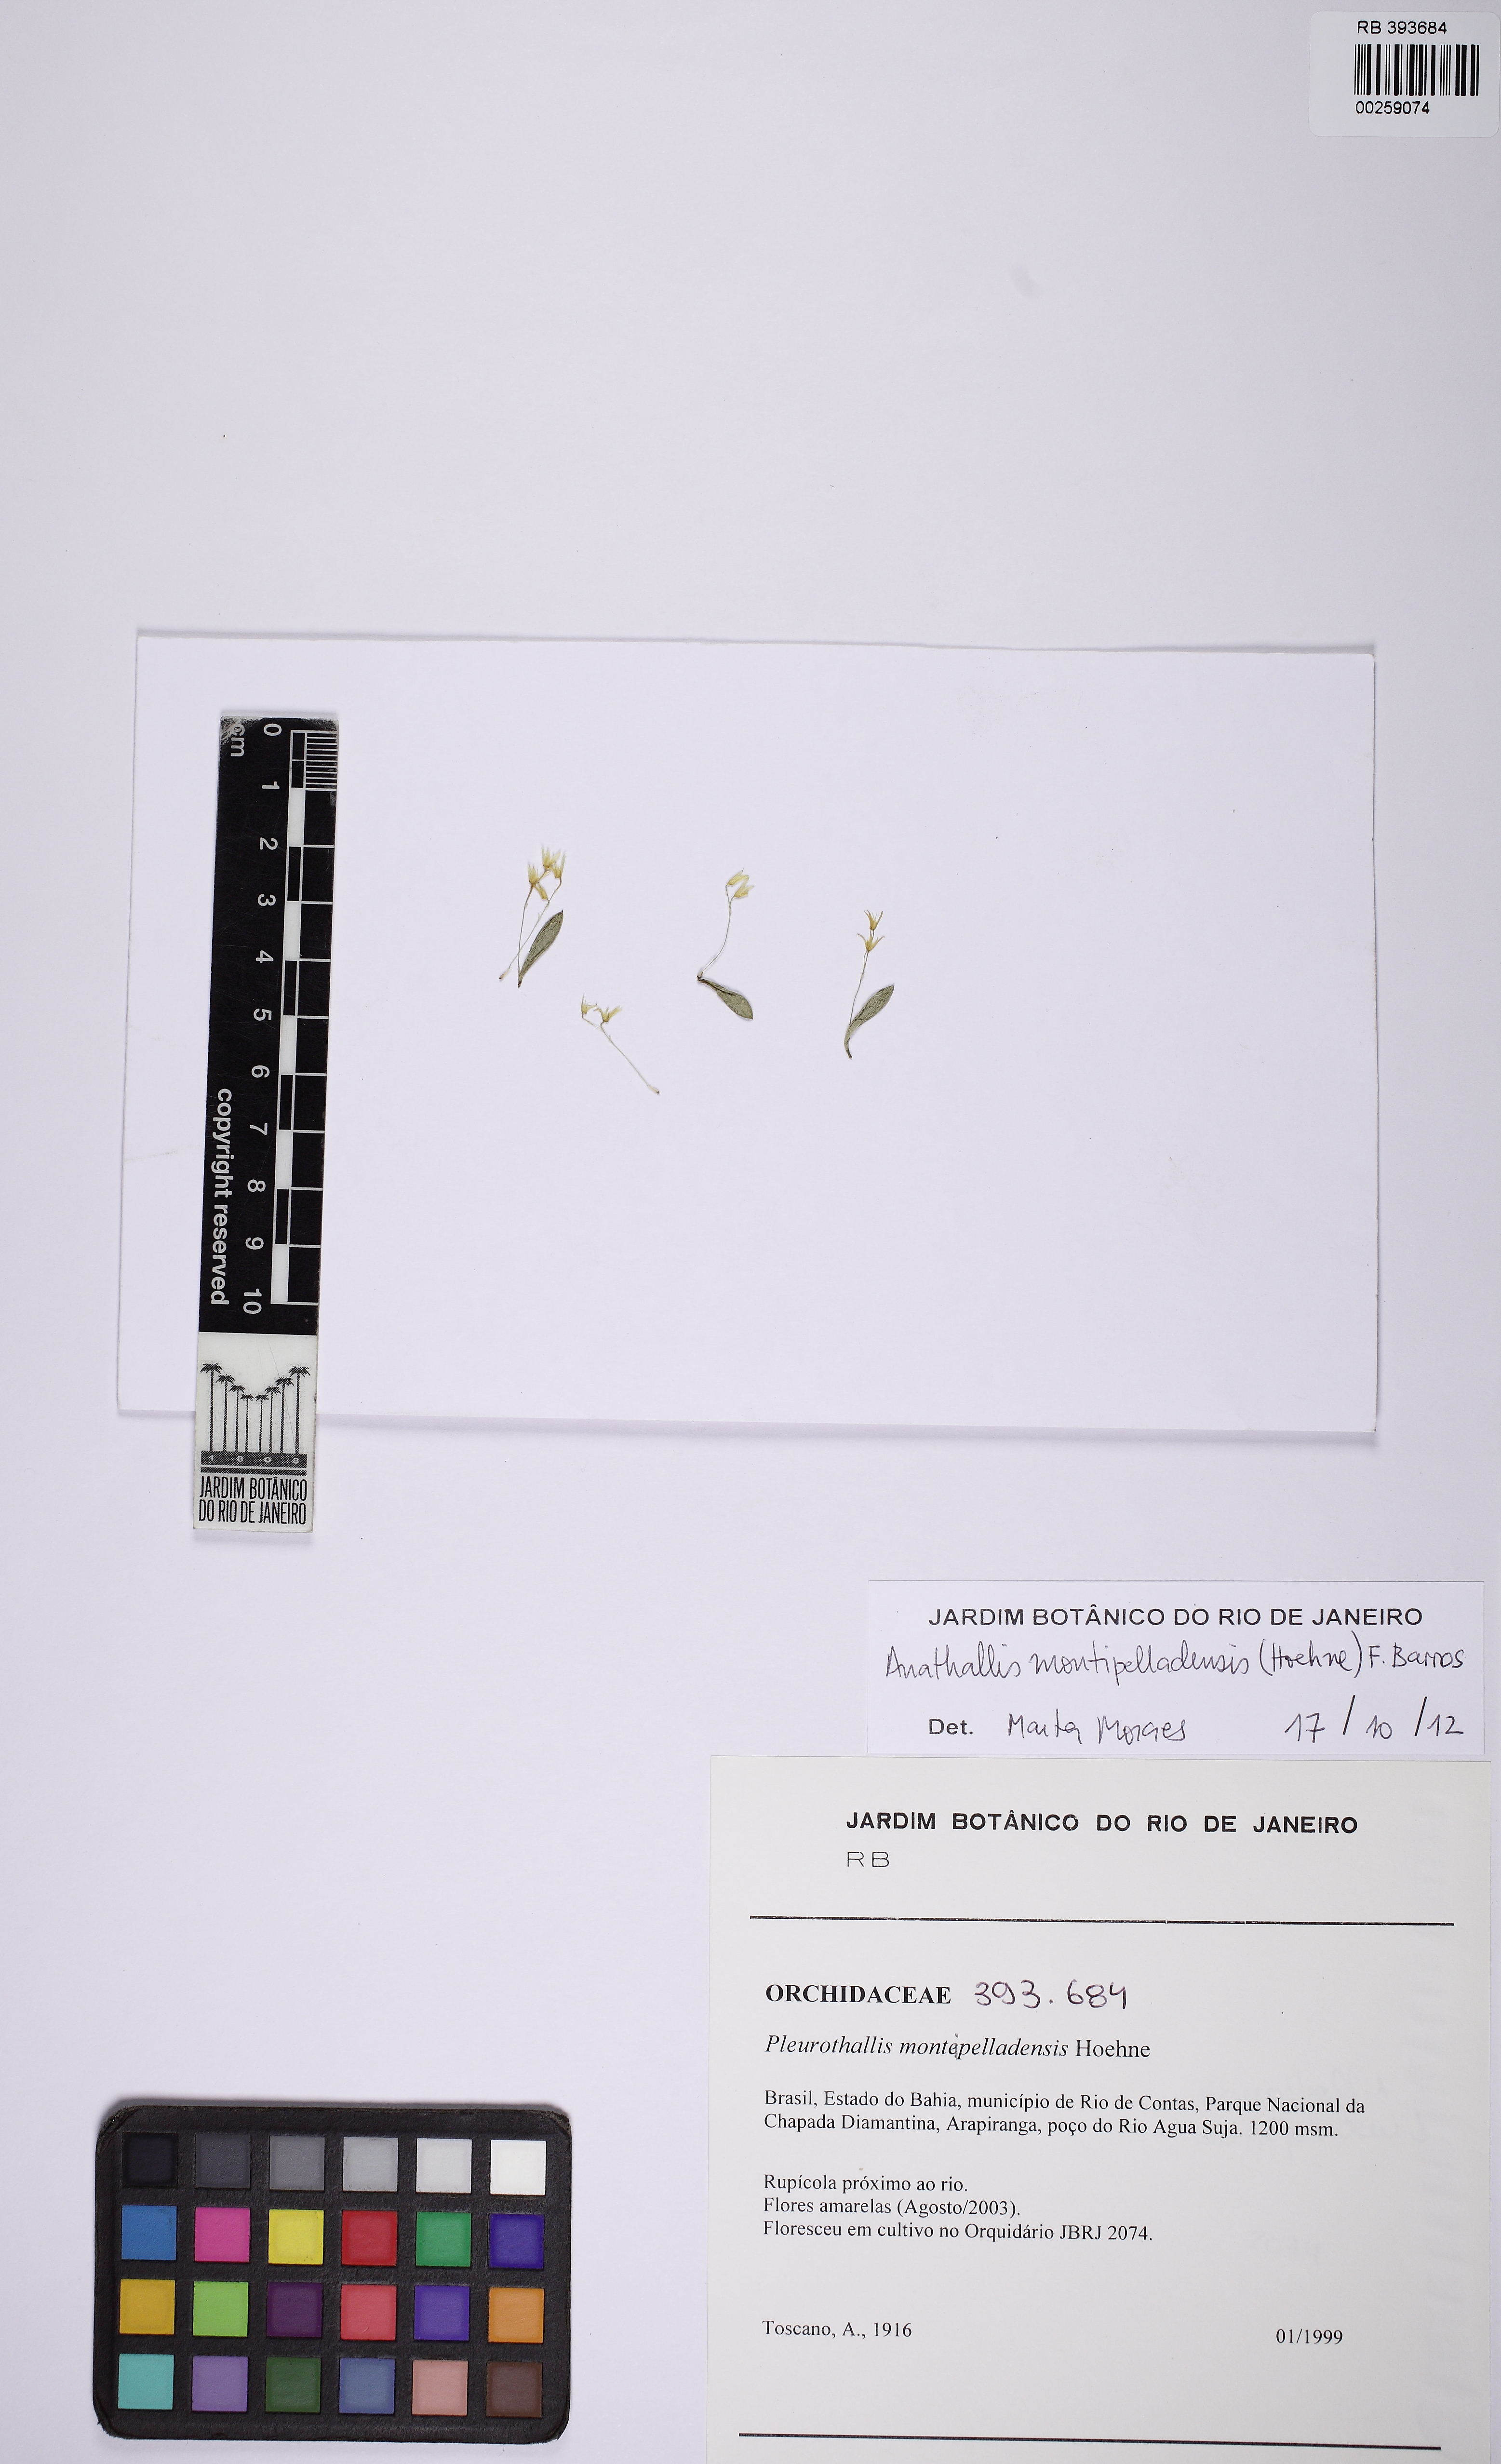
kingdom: Plantae
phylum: Tracheophyta
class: Liliopsida
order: Asparagales
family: Orchidaceae
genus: Anathallis
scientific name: Anathallis aristulata
